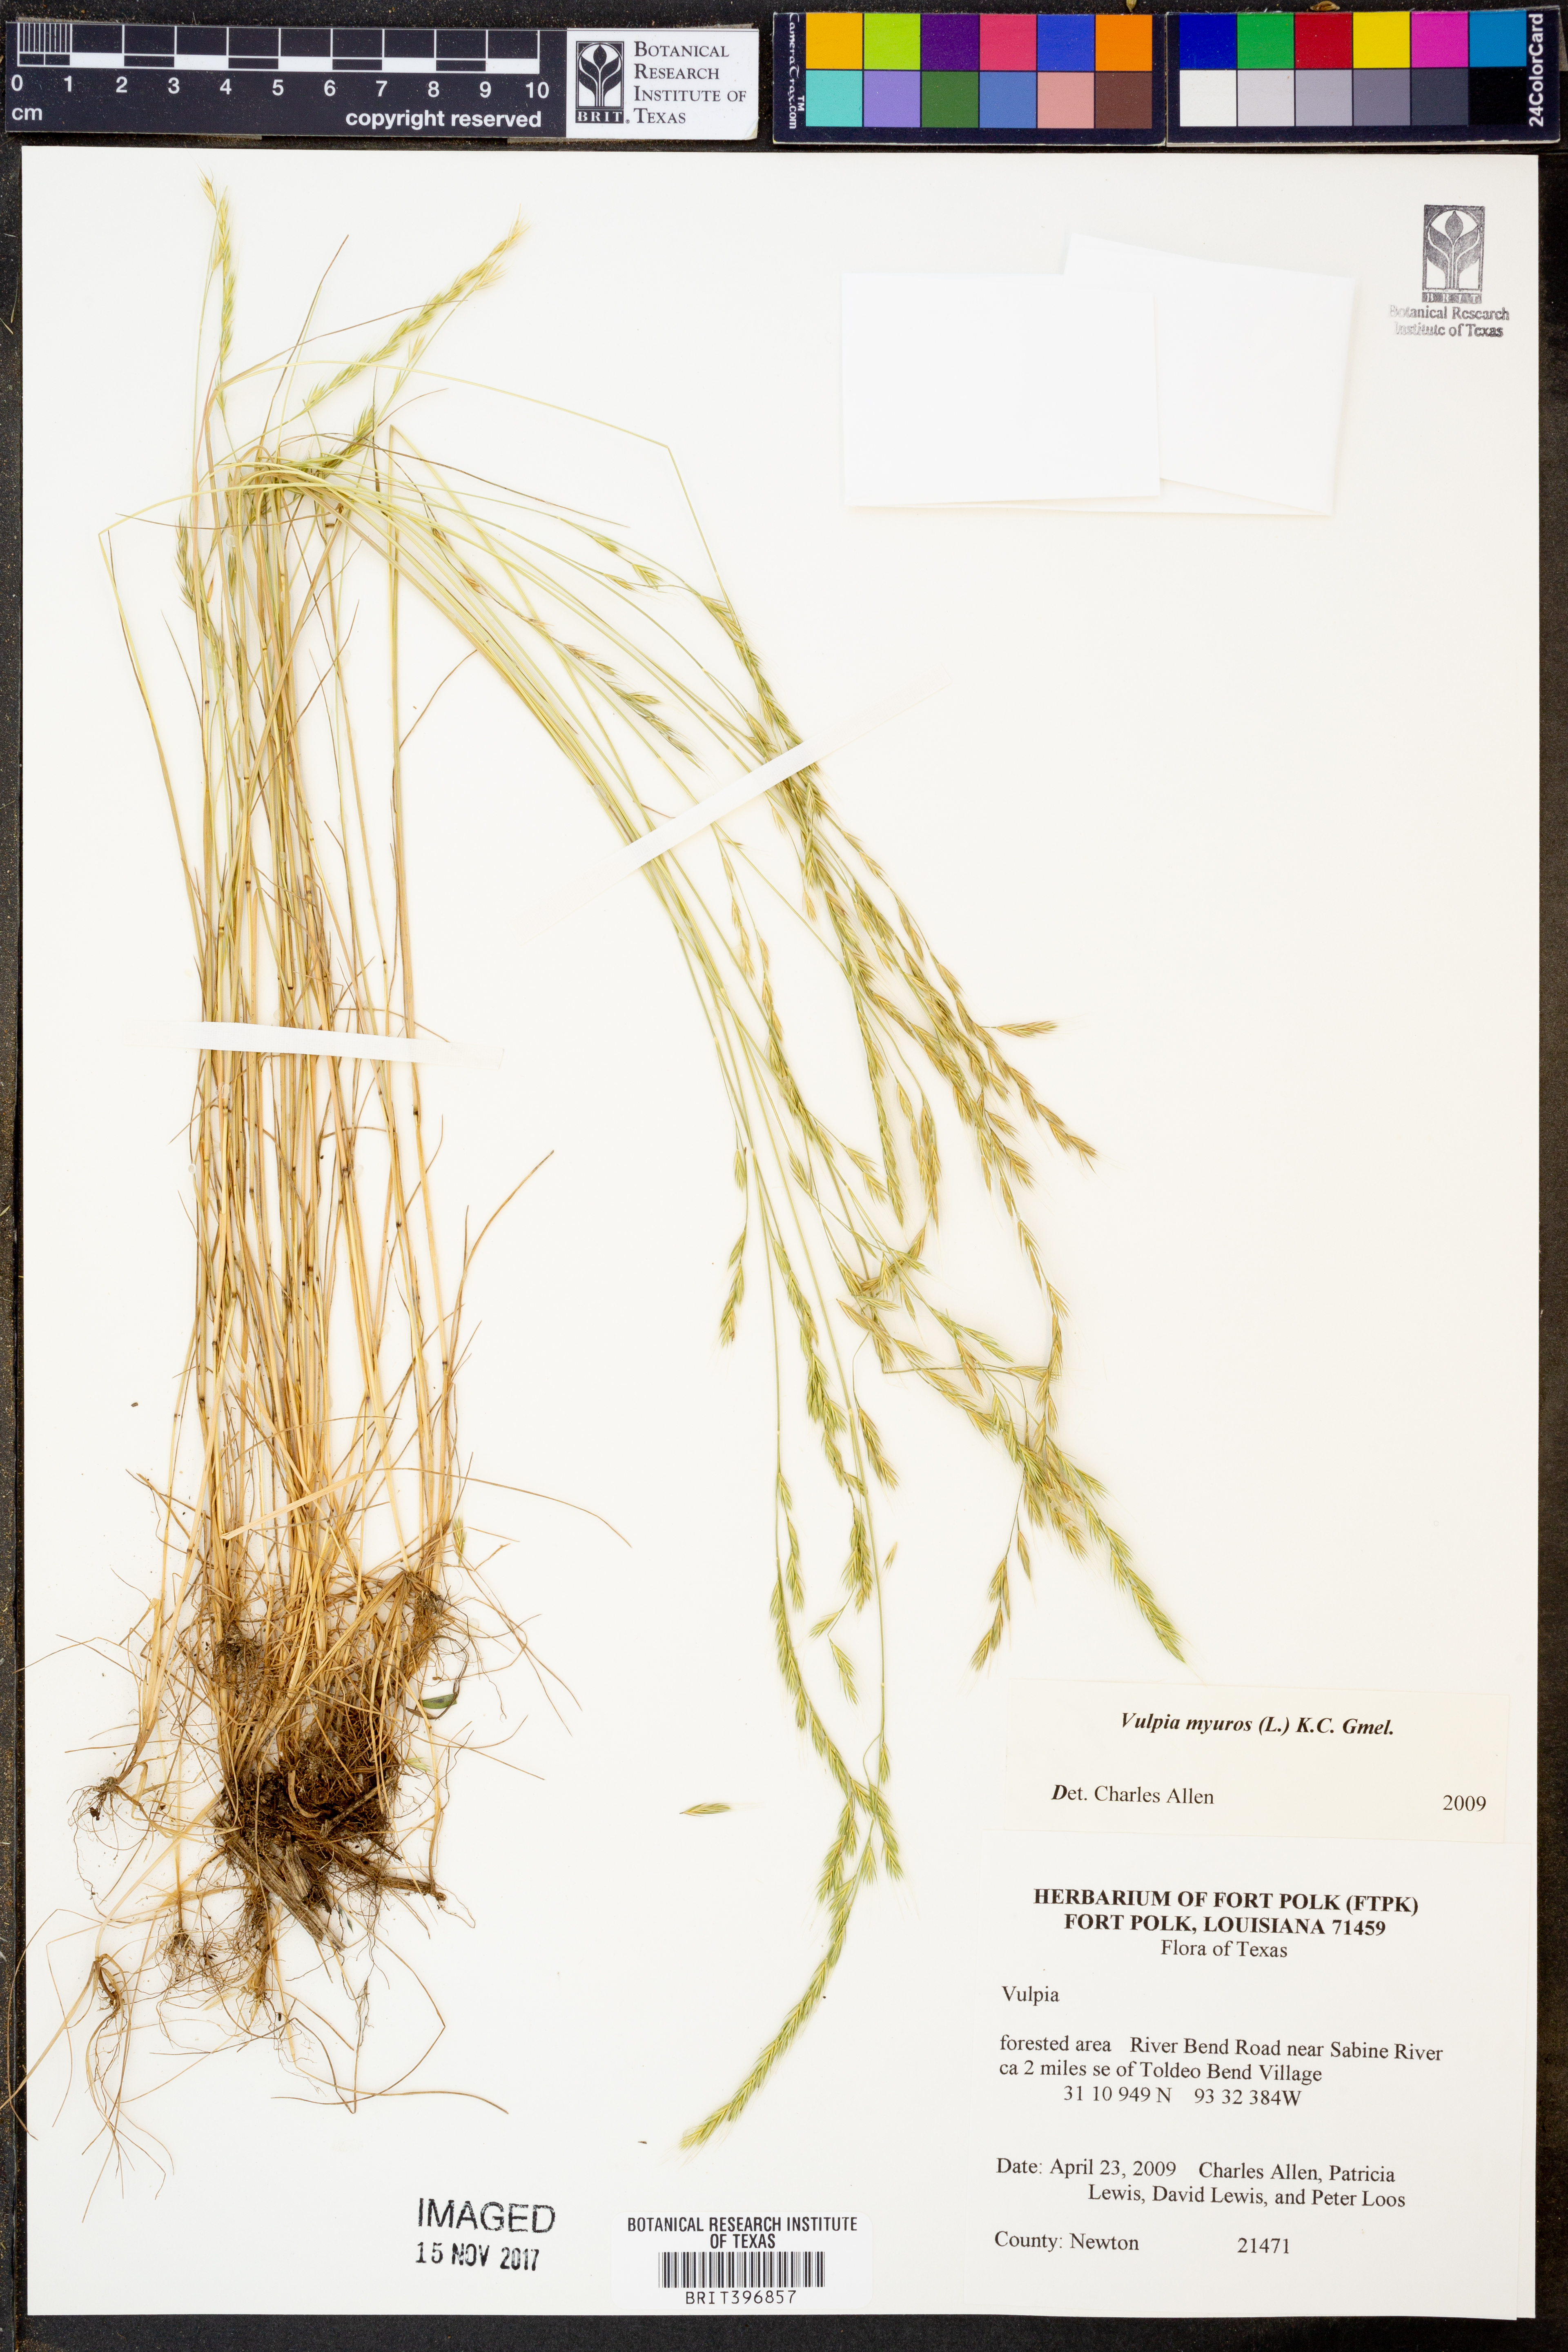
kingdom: Plantae
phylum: Tracheophyta
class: Liliopsida
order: Poales
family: Poaceae
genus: Festuca
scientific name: Festuca myuros
